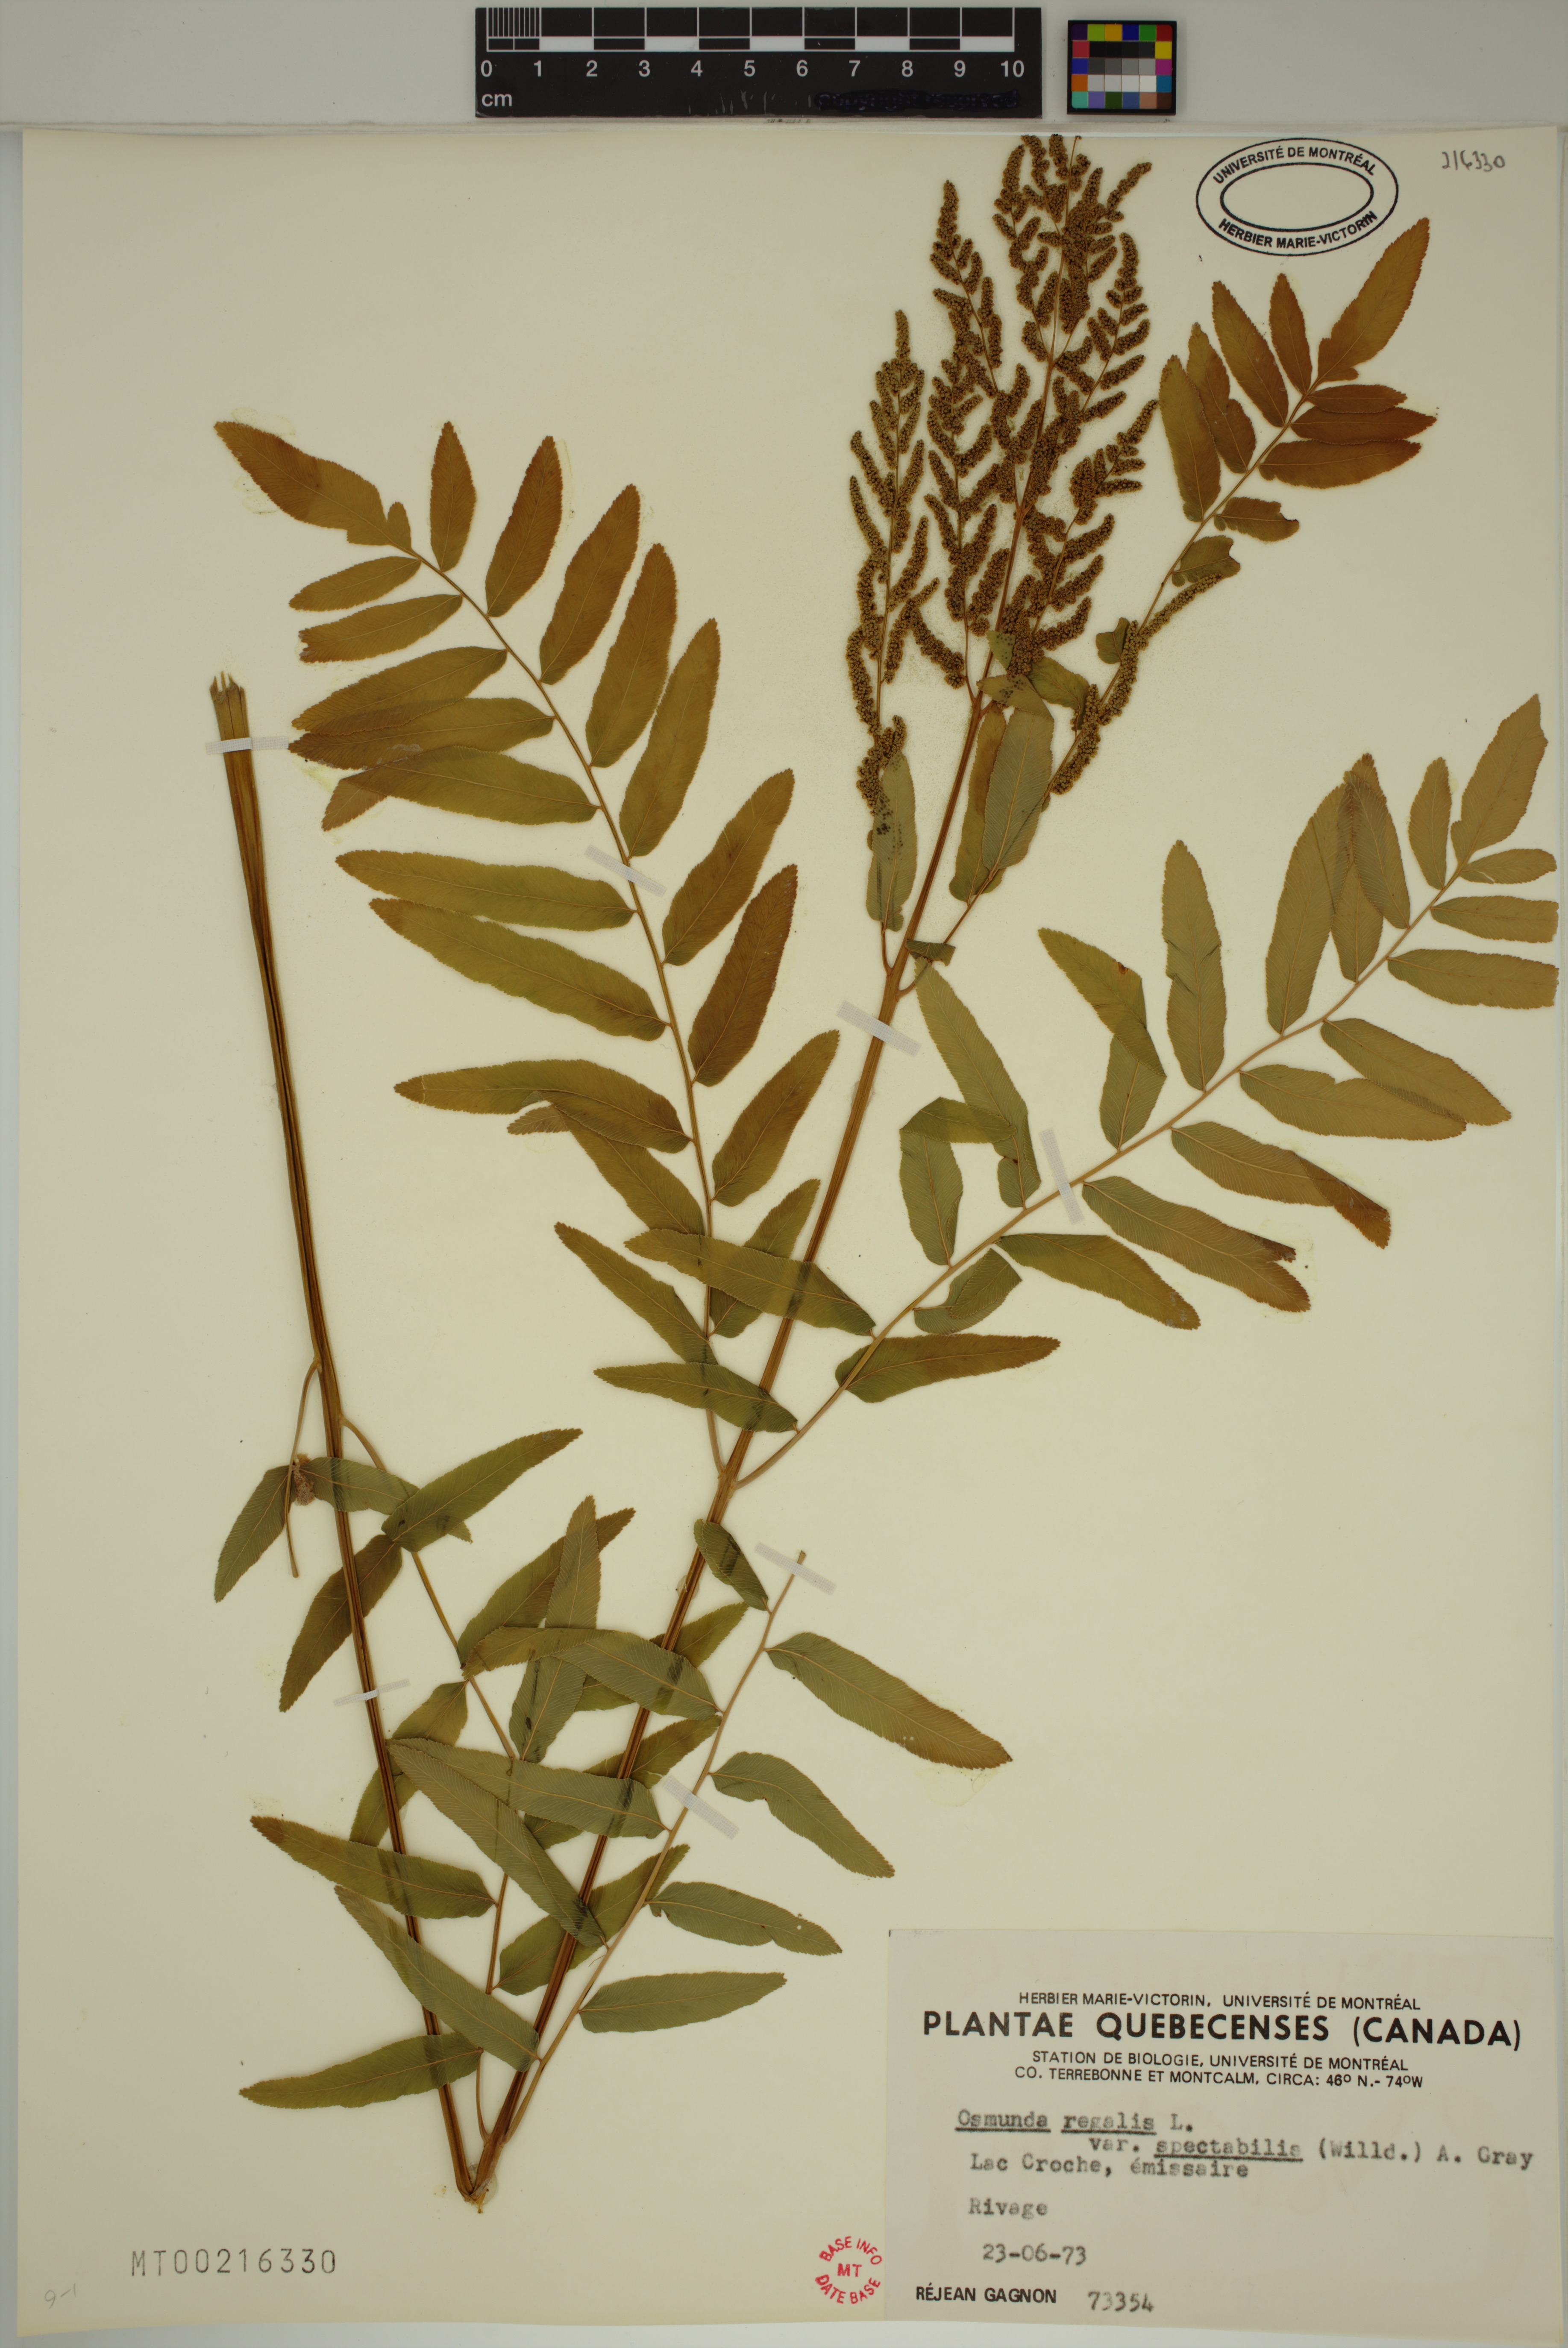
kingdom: Plantae
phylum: Tracheophyta
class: Polypodiopsida
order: Osmundales
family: Osmundaceae
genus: Osmunda
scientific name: Osmunda spectabilis
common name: American royal fern
